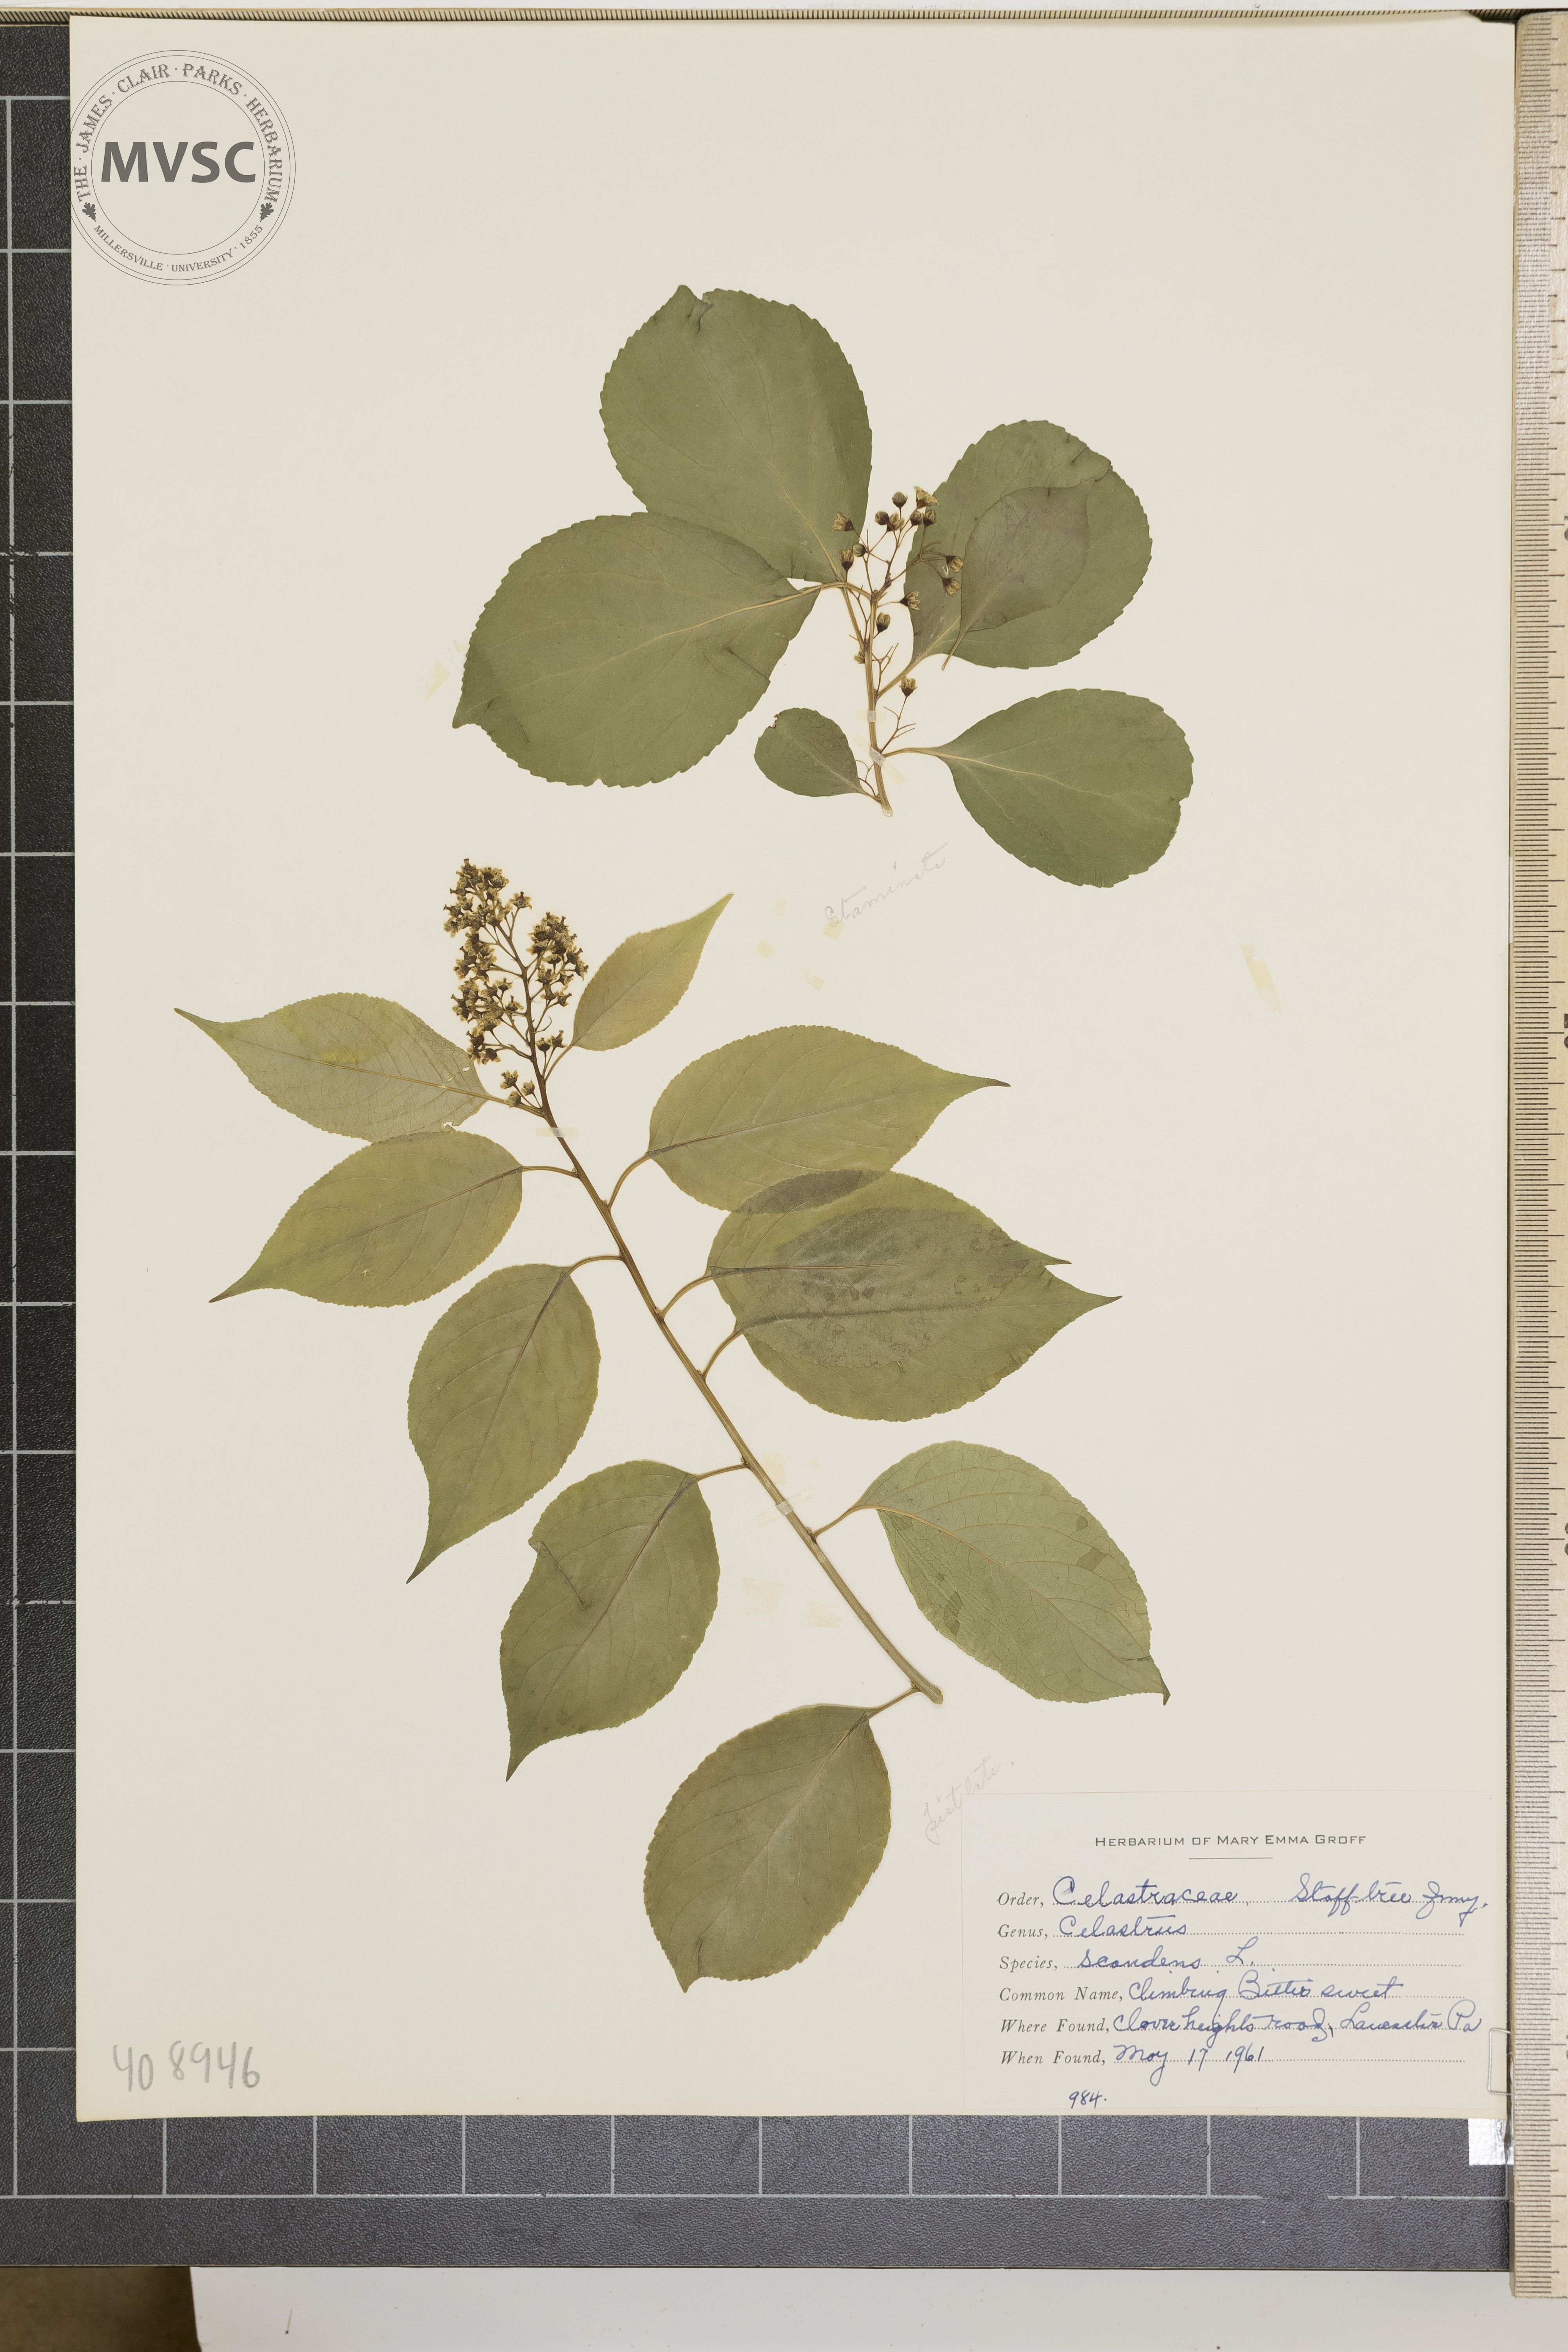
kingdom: Plantae
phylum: Tracheophyta
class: Magnoliopsida
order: Celastrales
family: Celastraceae
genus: Celastrus
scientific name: Celastrus scandens
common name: Climbing Bittersweet
